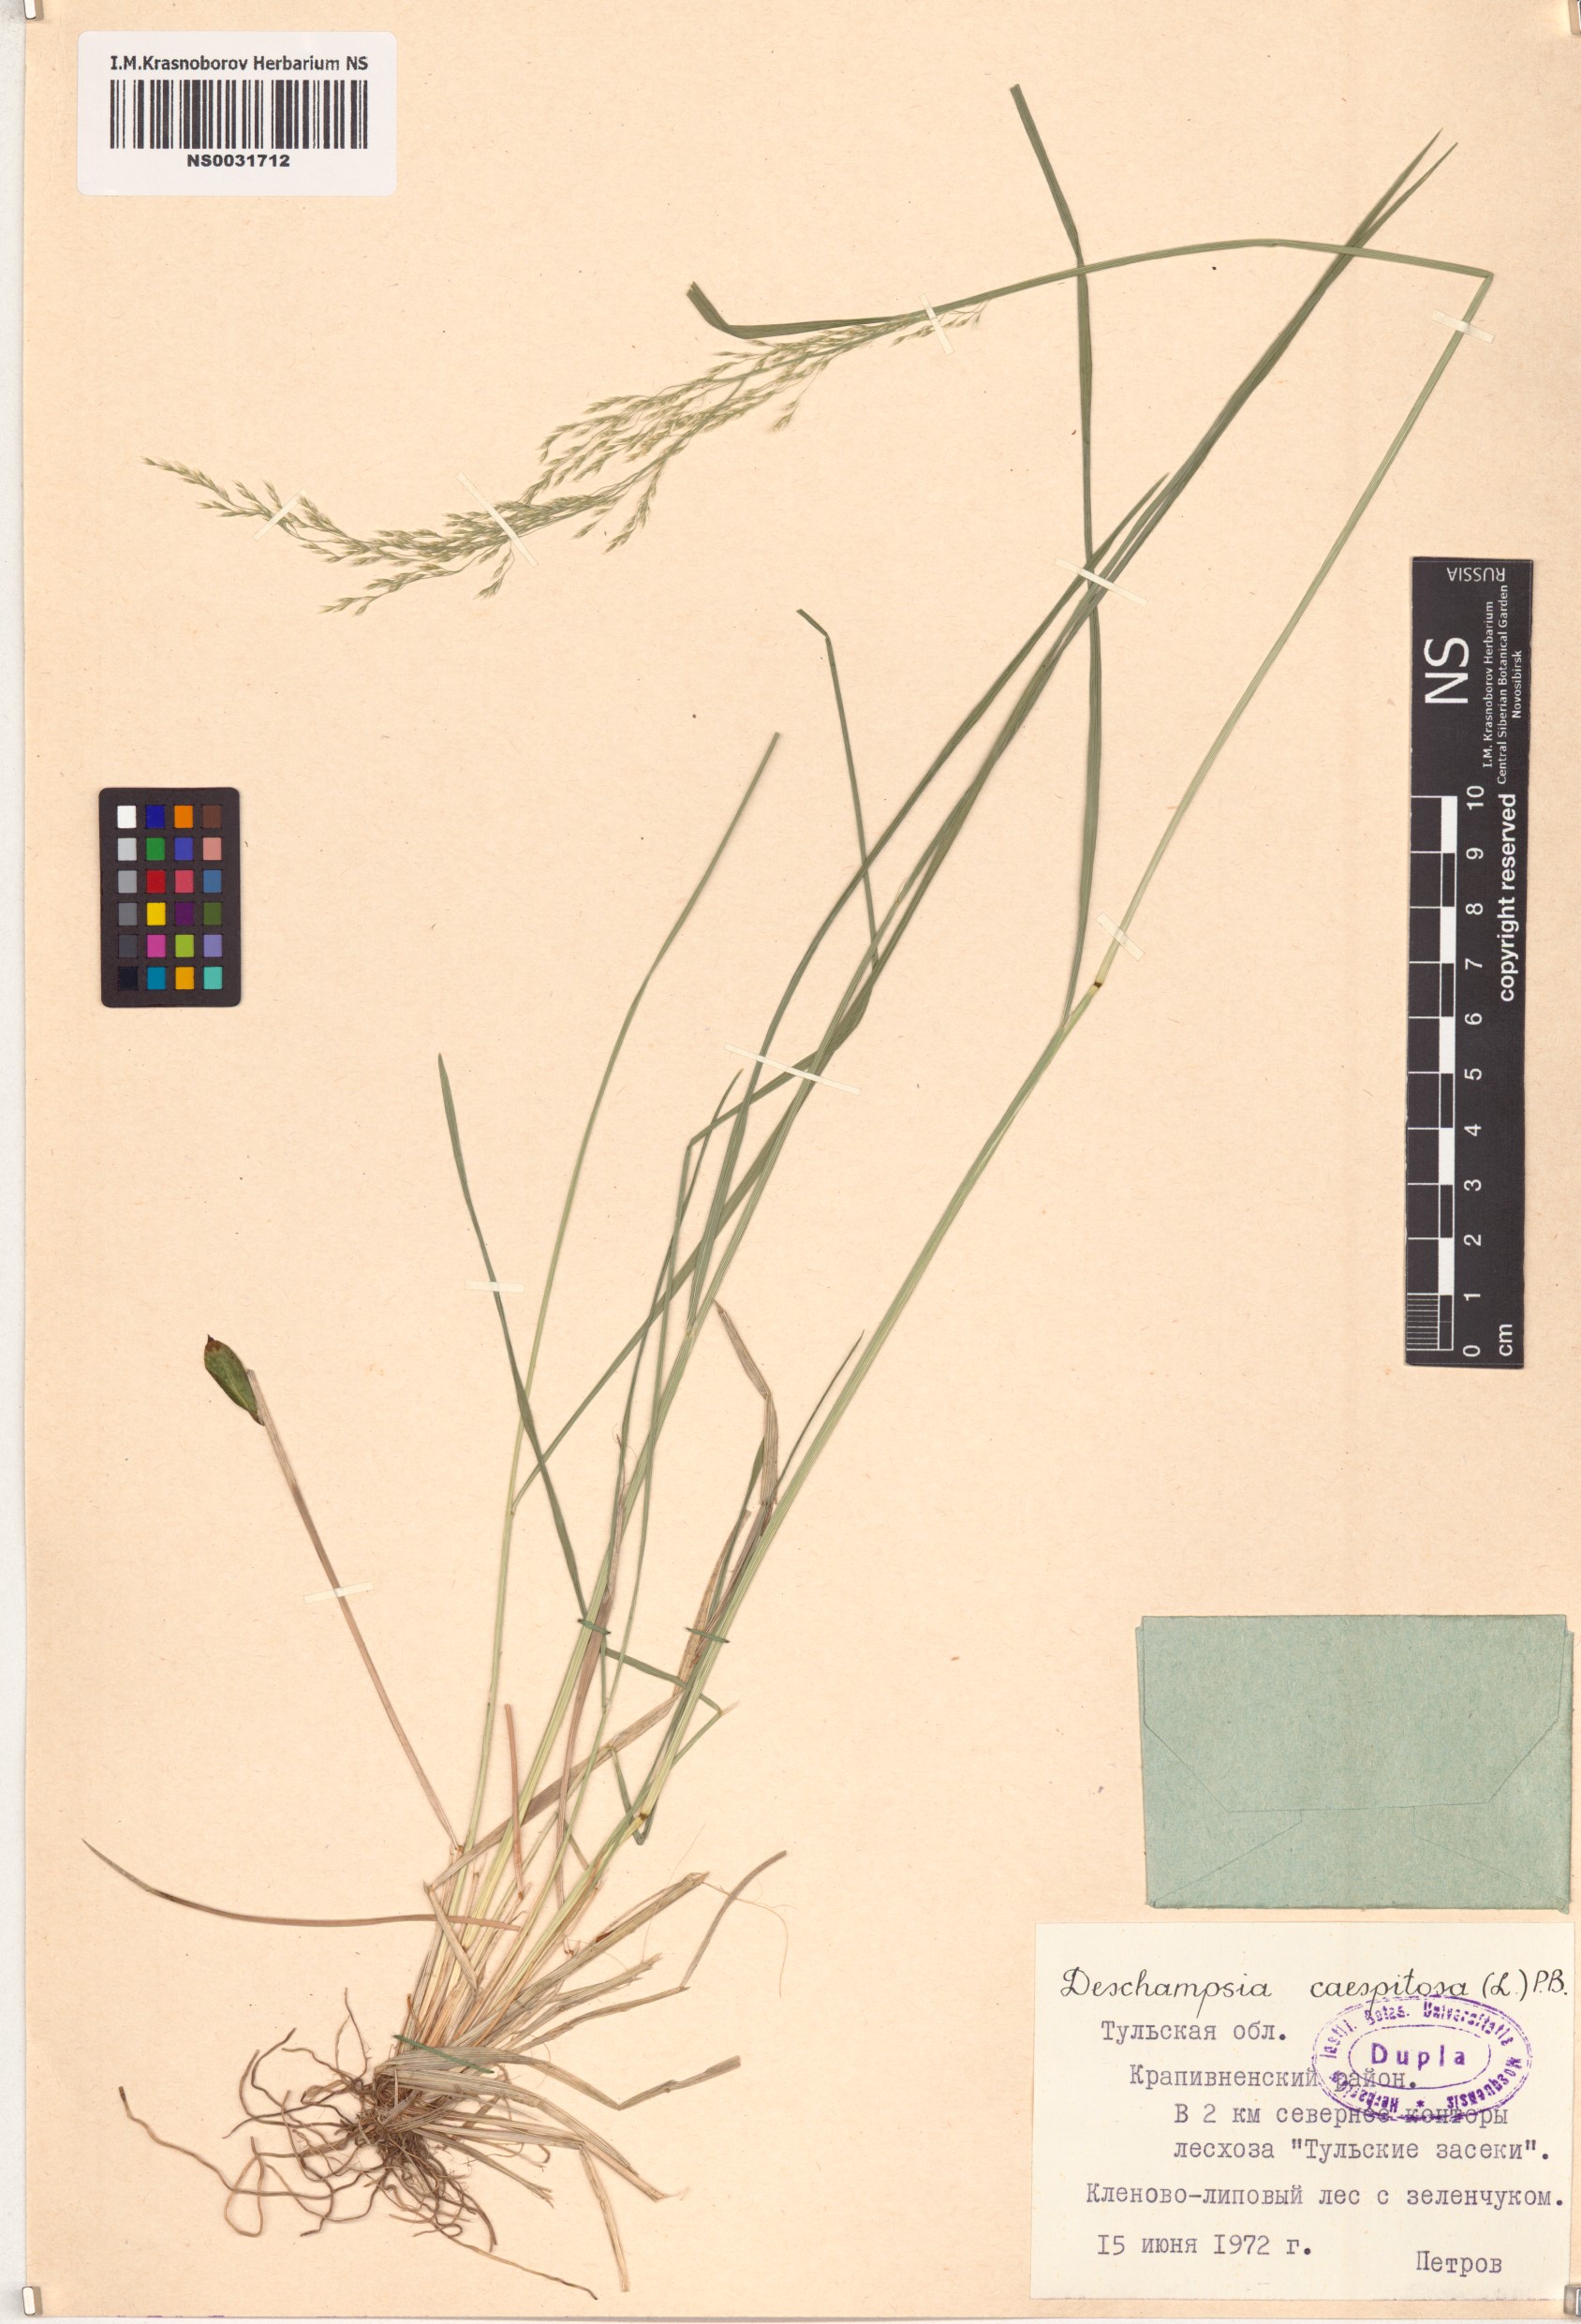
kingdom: Plantae
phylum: Tracheophyta
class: Liliopsida
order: Poales
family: Poaceae
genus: Deschampsia
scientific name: Deschampsia cespitosa
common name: Tufted hair-grass
